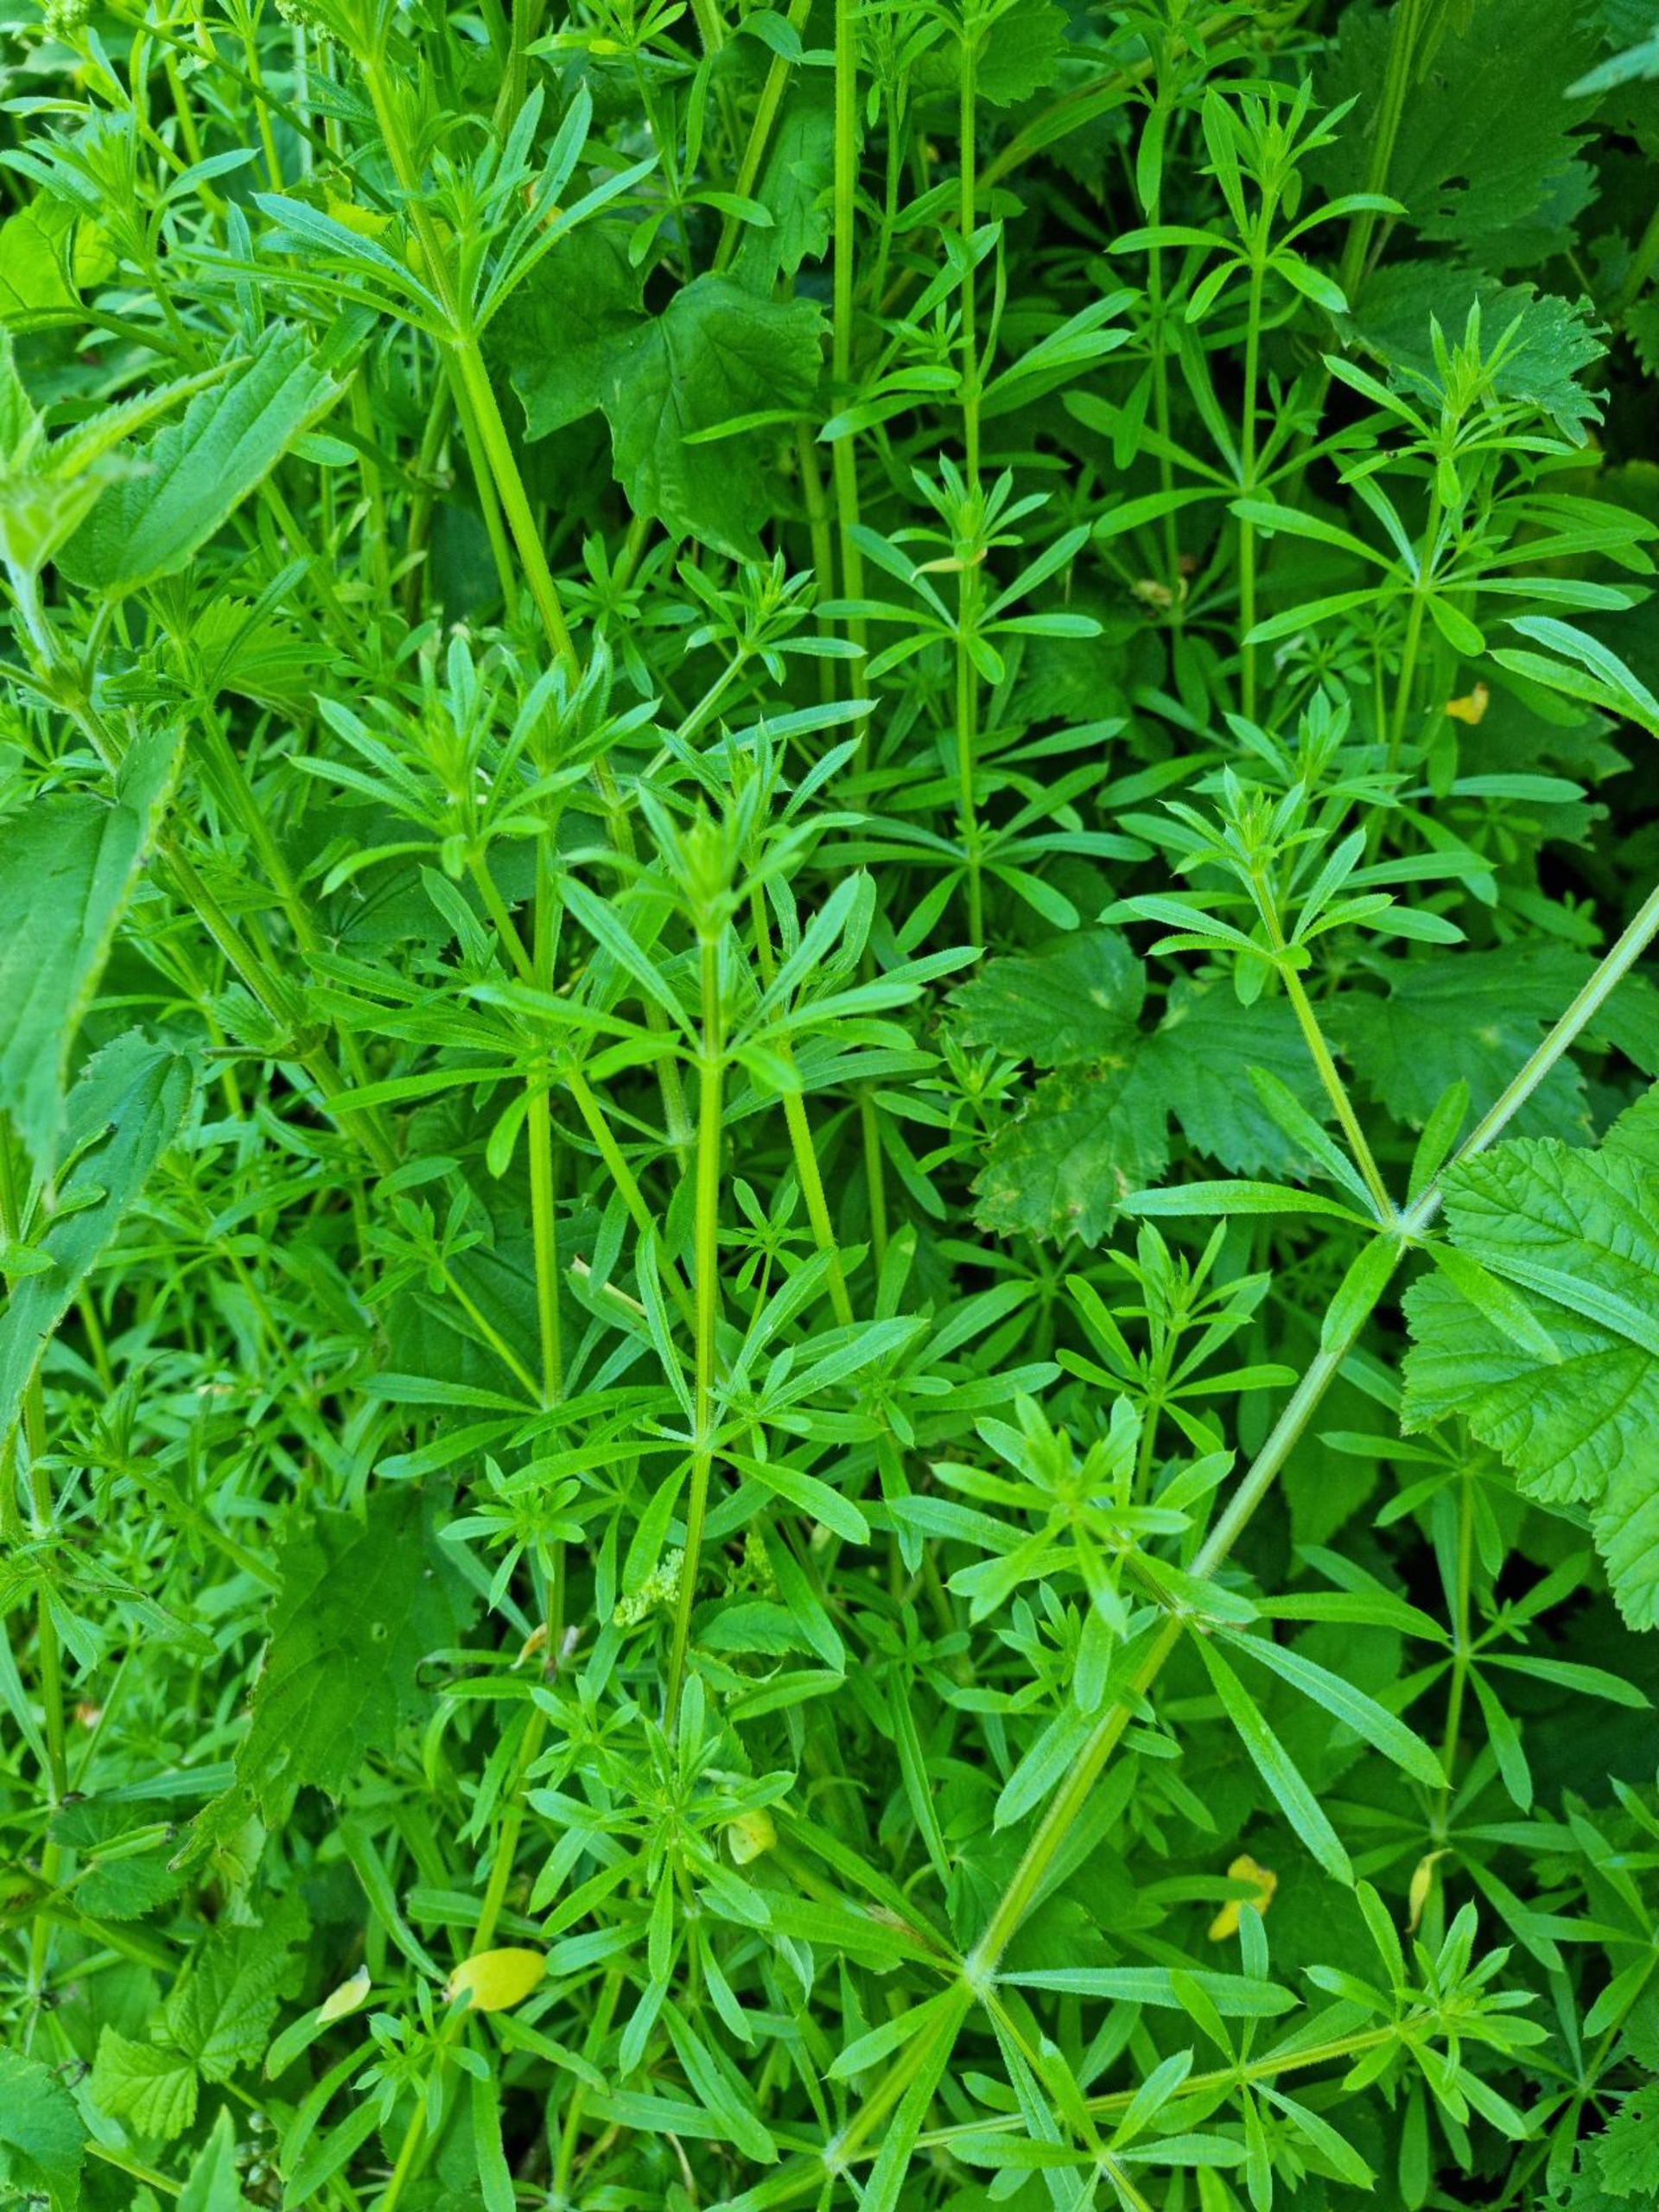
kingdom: Plantae
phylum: Tracheophyta
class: Magnoliopsida
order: Gentianales
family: Rubiaceae
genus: Galium
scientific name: Galium aparine
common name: Burre-snerre
